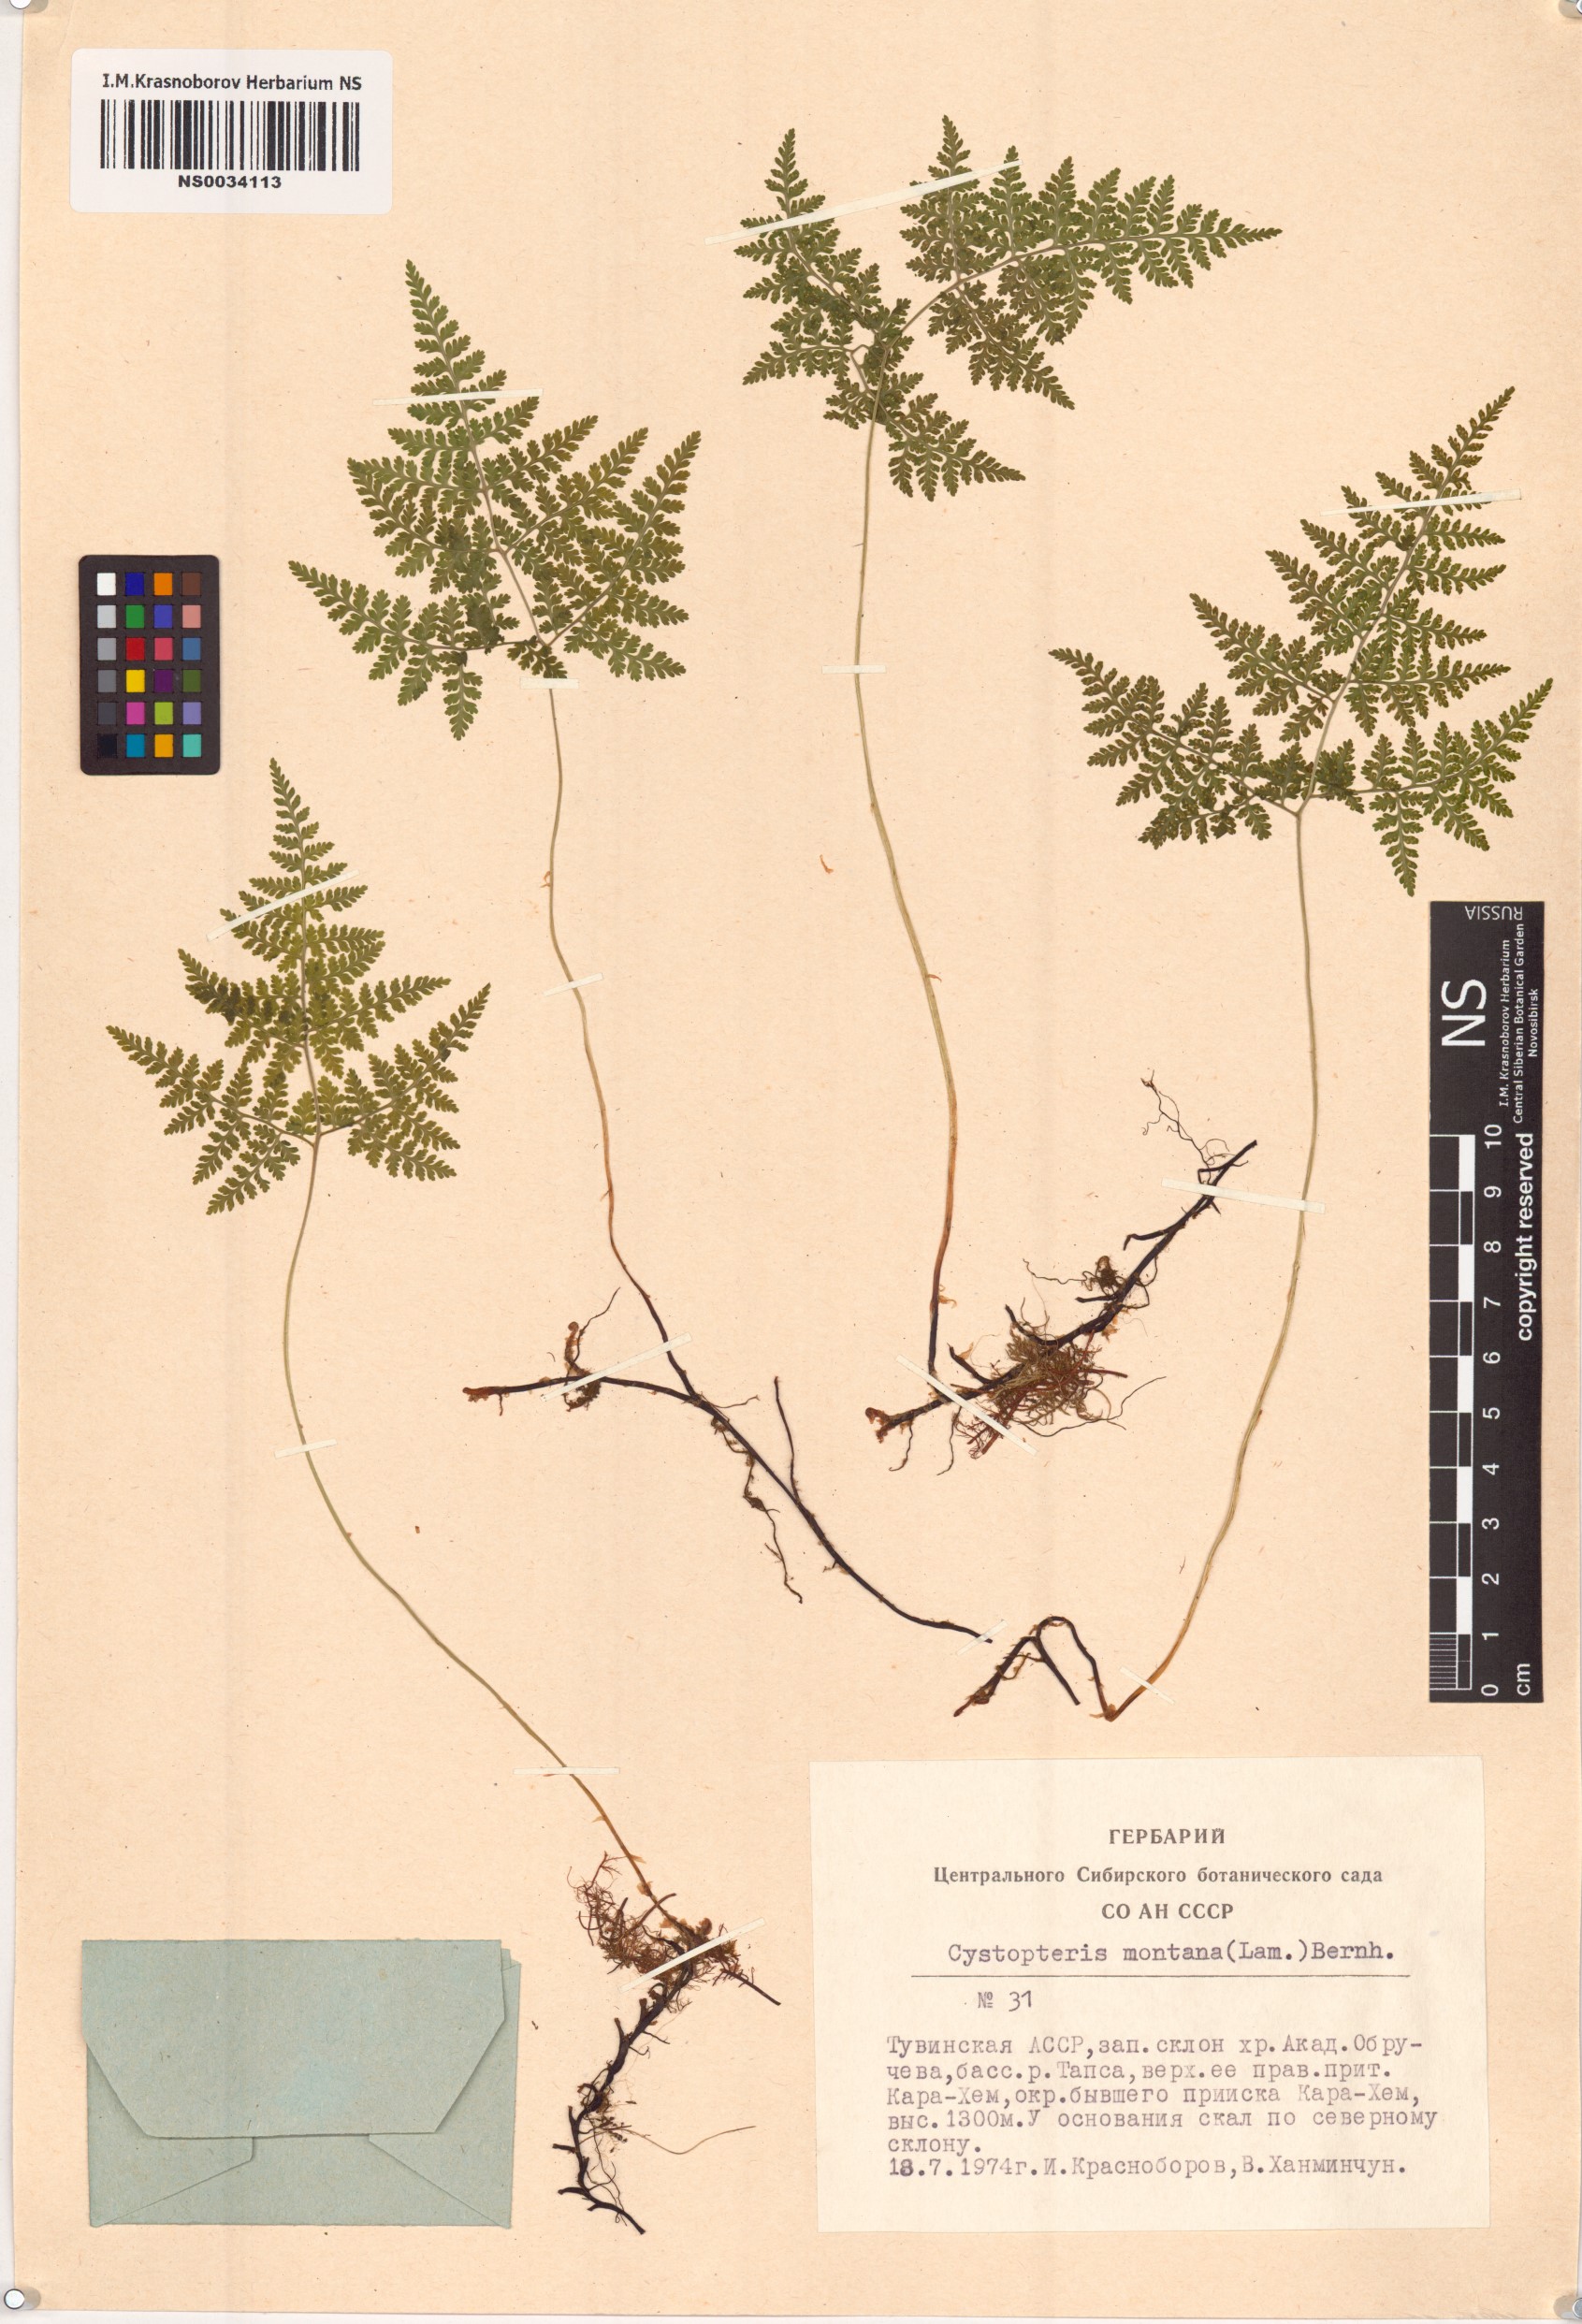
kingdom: Plantae
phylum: Tracheophyta
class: Polypodiopsida
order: Polypodiales
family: Cystopteridaceae
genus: Cystopteris
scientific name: Cystopteris montana
